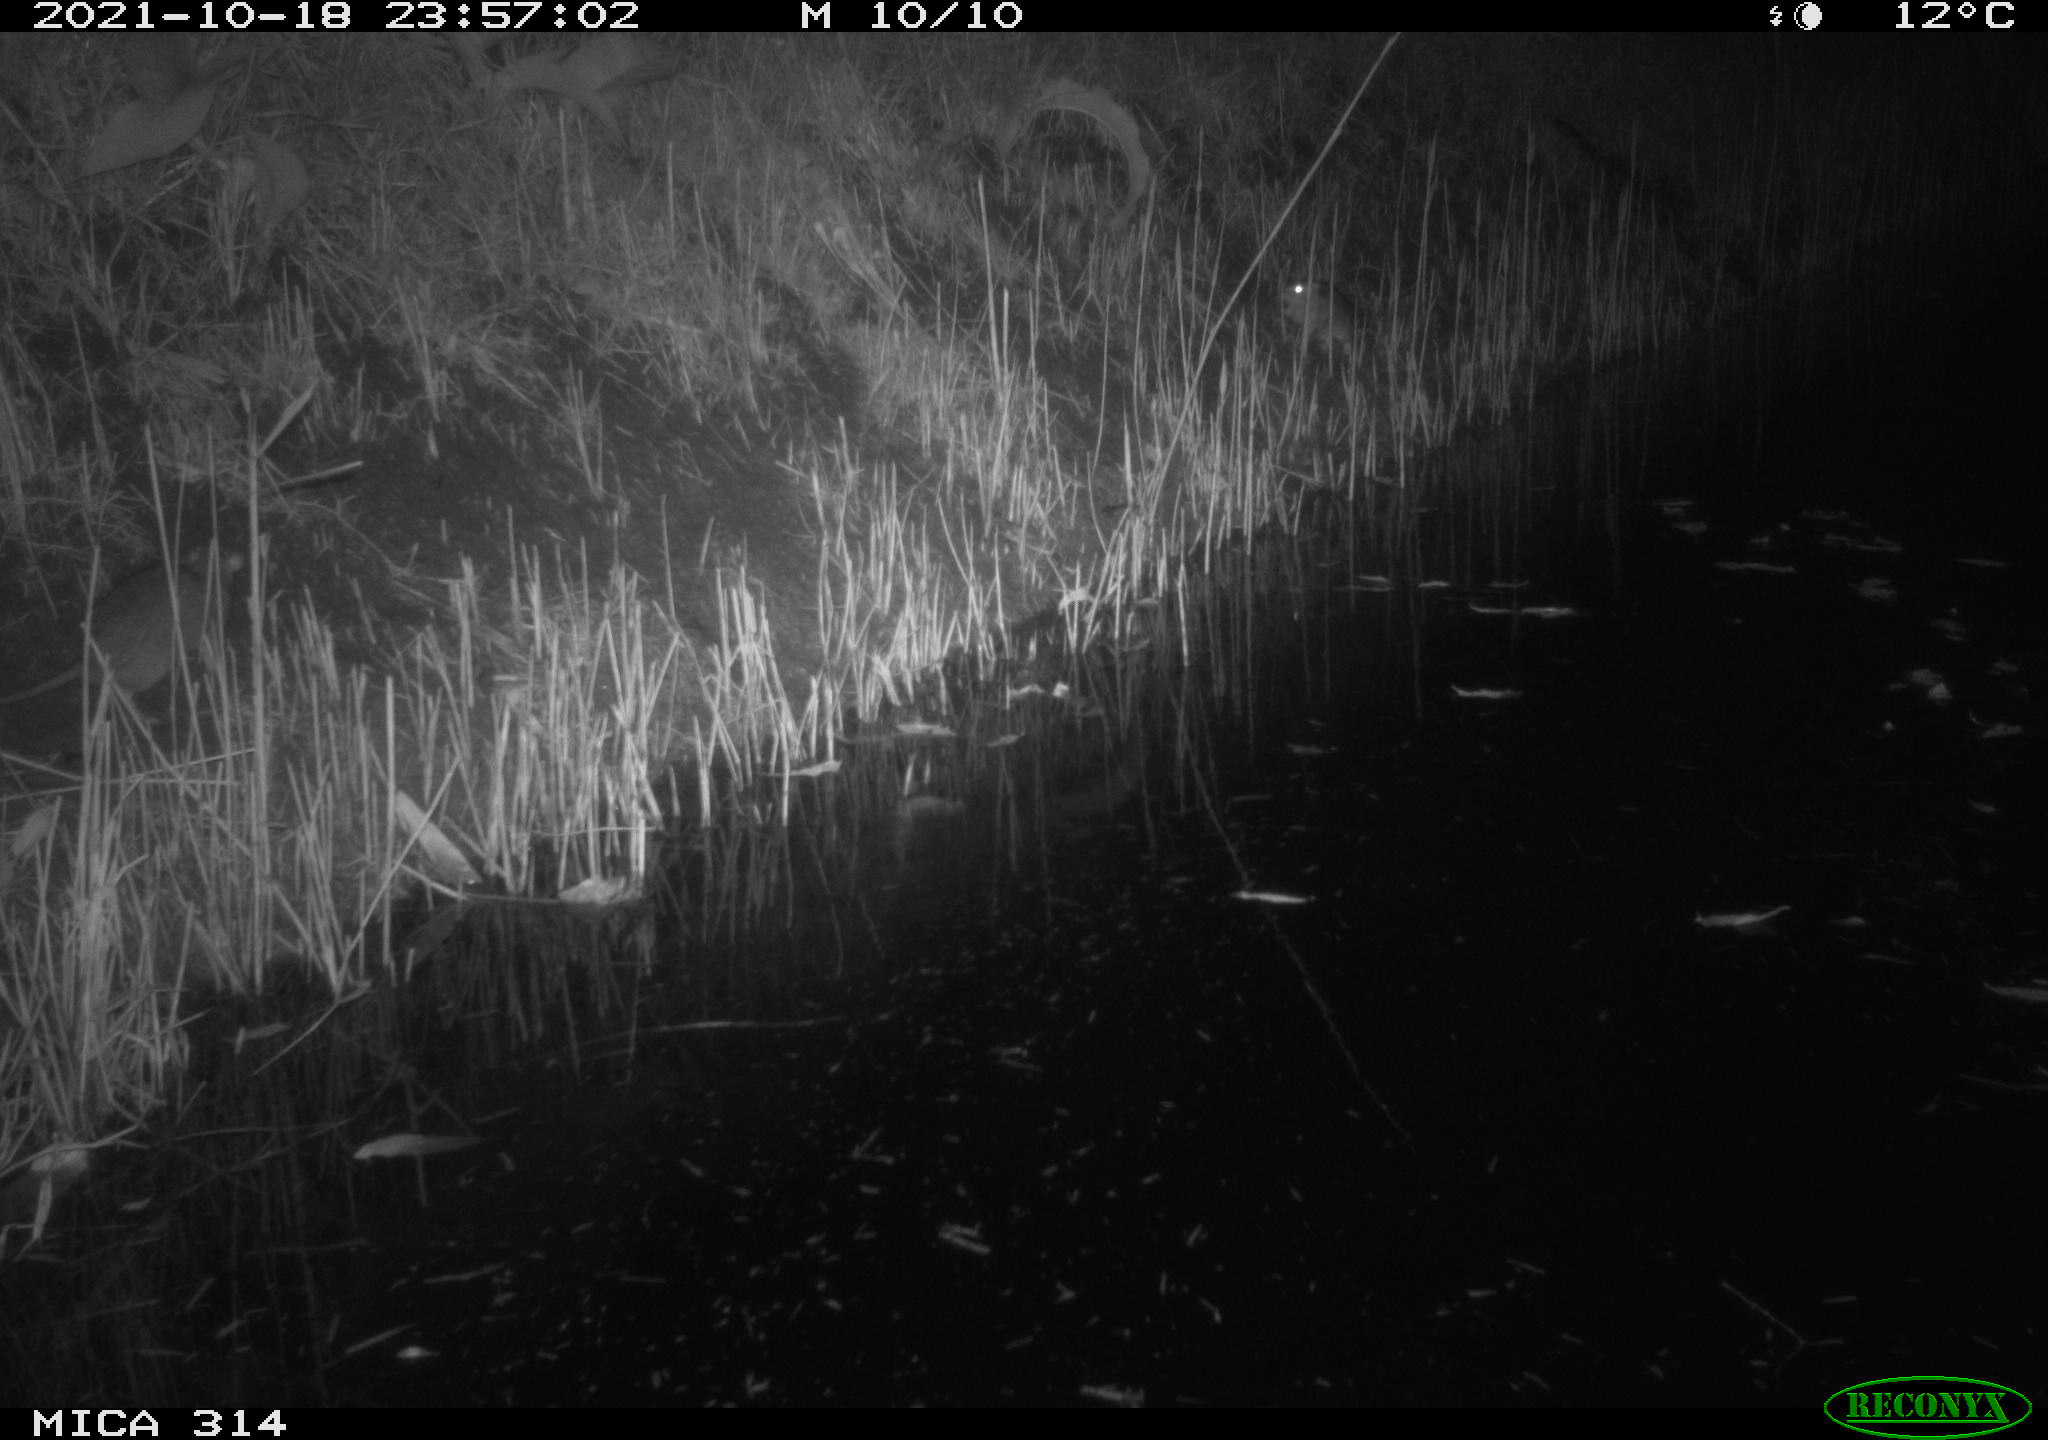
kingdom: Animalia
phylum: Chordata
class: Mammalia
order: Rodentia
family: Muridae
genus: Rattus
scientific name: Rattus norvegicus
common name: Brown rat
